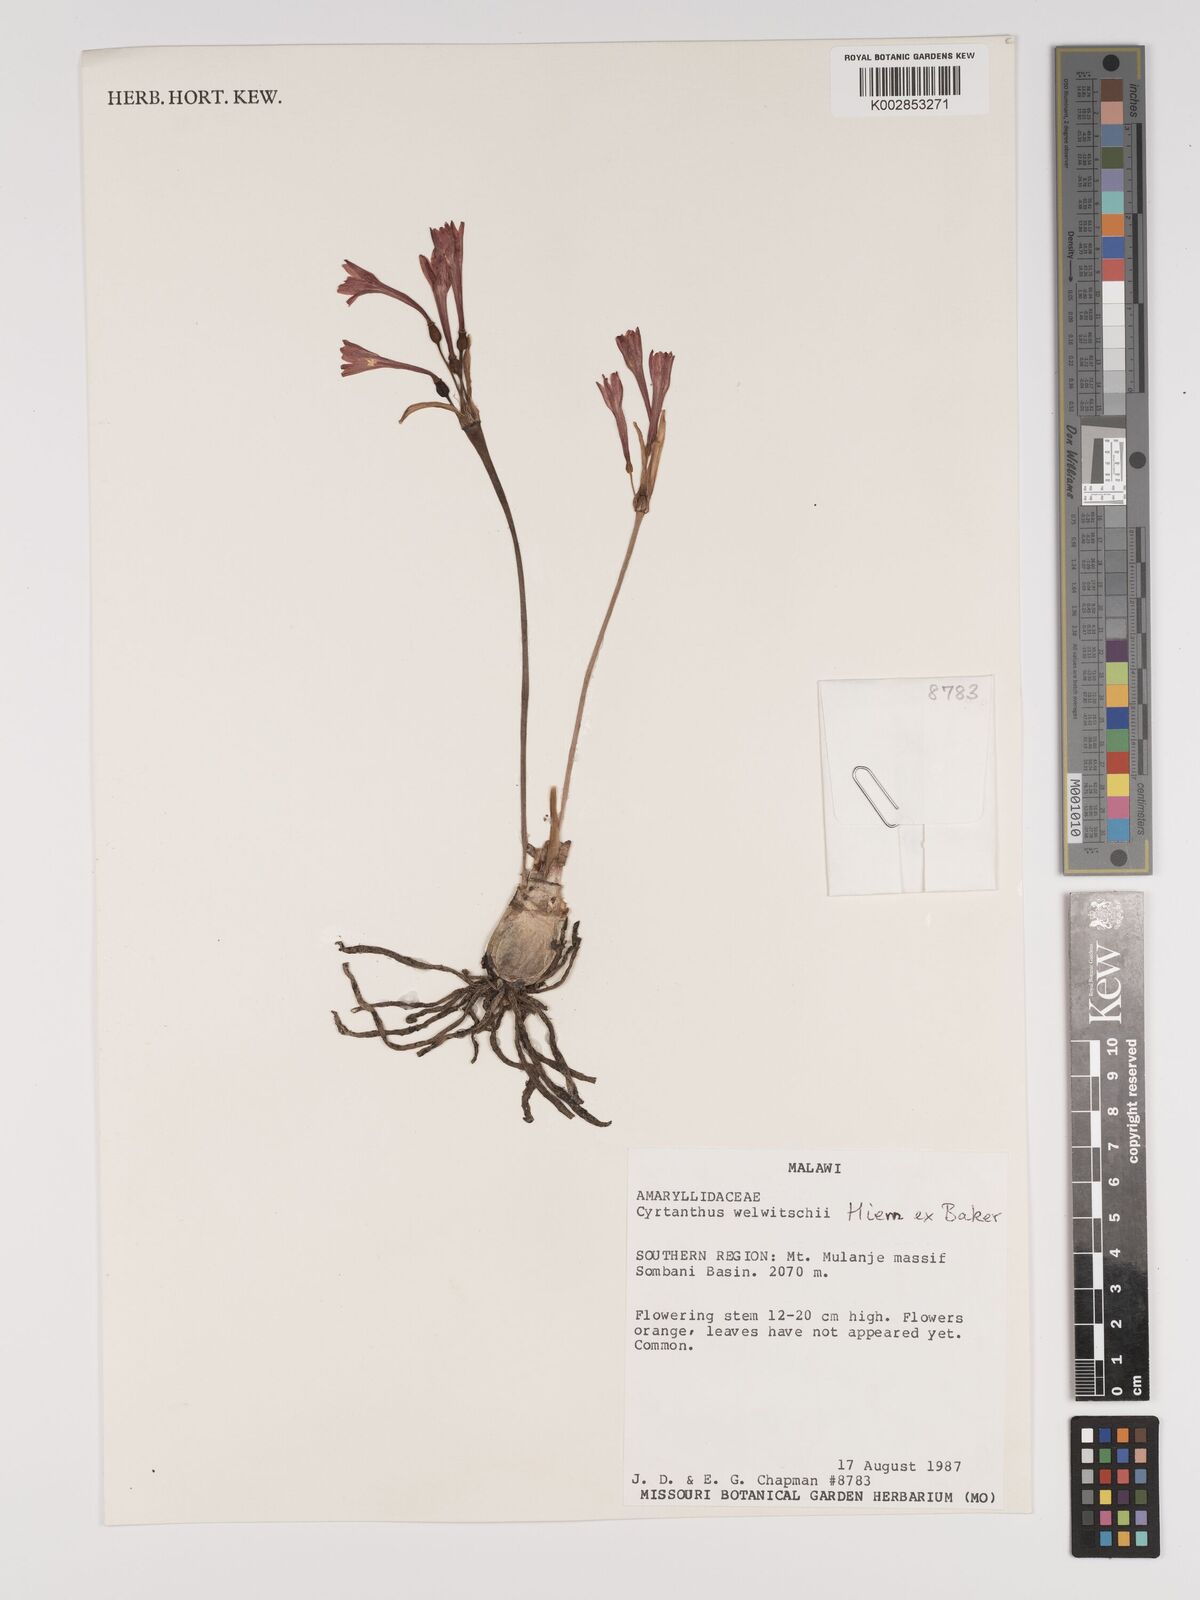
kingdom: Plantae
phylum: Tracheophyta
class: Liliopsida
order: Asparagales
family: Amaryllidaceae
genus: Cyrtanthus
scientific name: Cyrtanthus welwitschii
